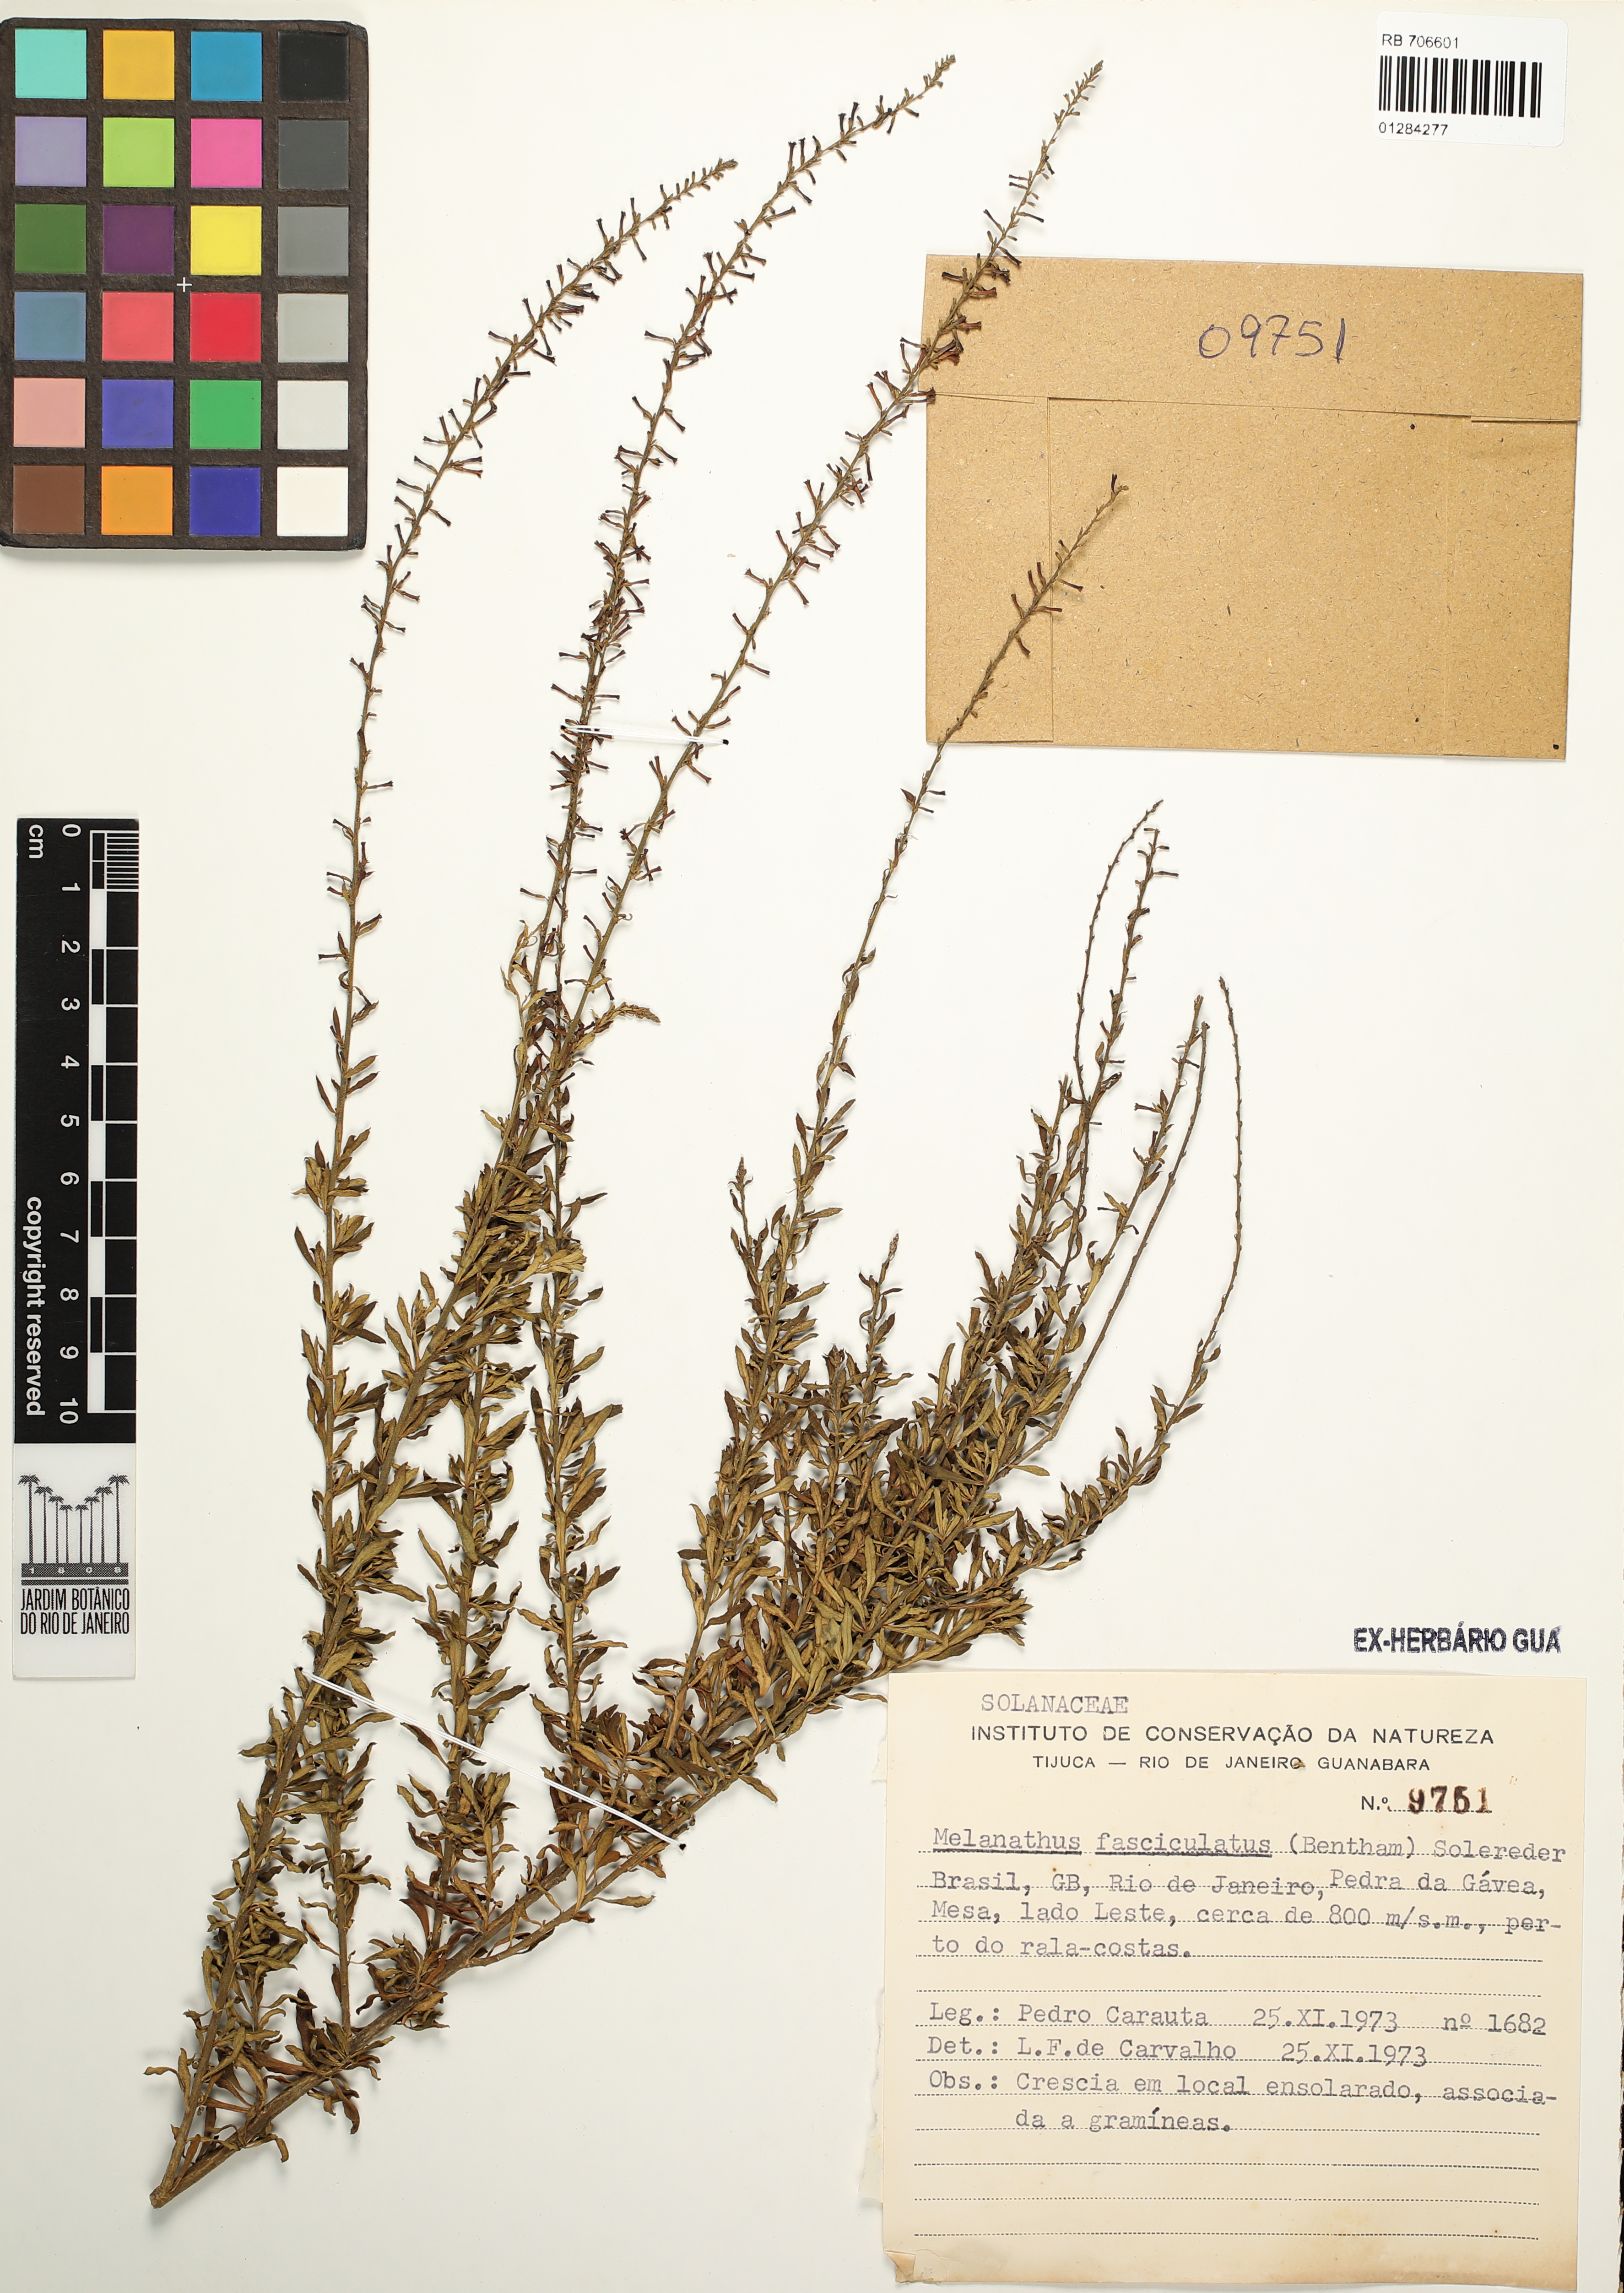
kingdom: Plantae
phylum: Tracheophyta
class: Magnoliopsida
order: Solanales
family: Solanaceae
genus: Melananthus
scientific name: Melananthus fasciculatus
